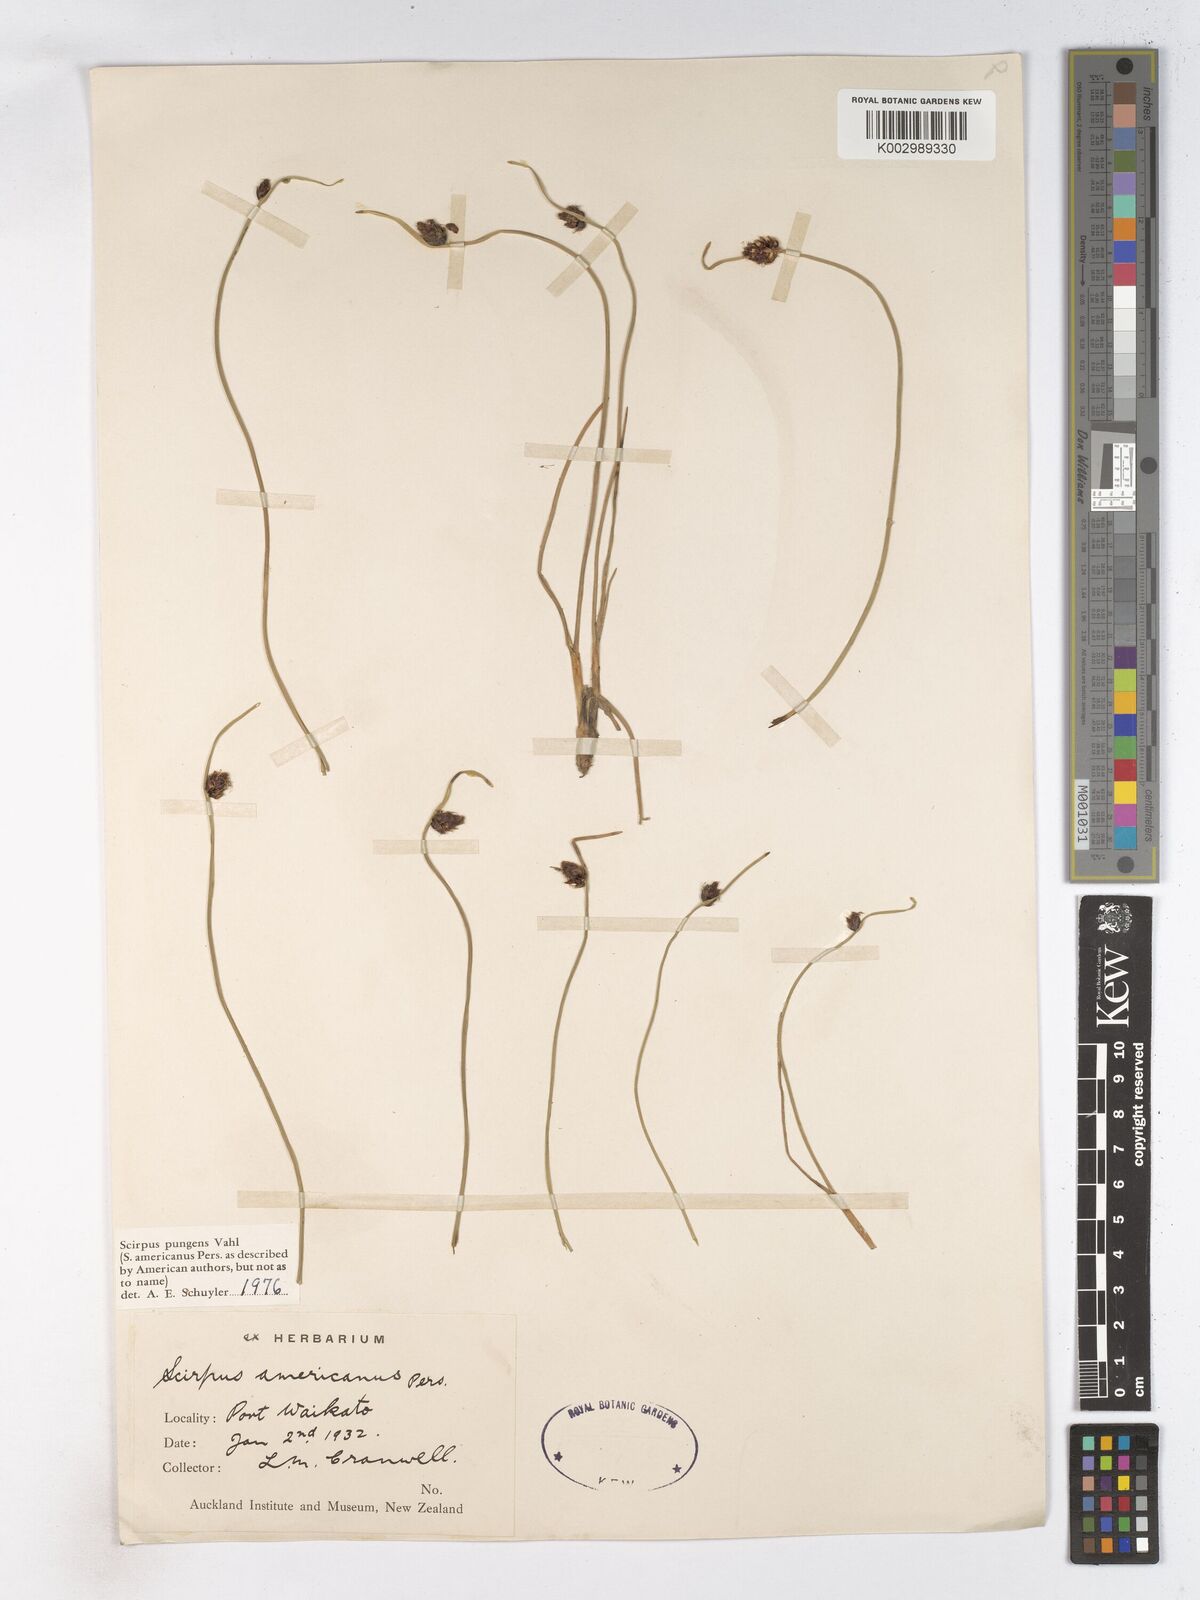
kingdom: Plantae
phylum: Tracheophyta
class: Liliopsida
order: Poales
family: Cyperaceae
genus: Schoenoplectus
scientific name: Schoenoplectus pungens
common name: Sharp club-rush
